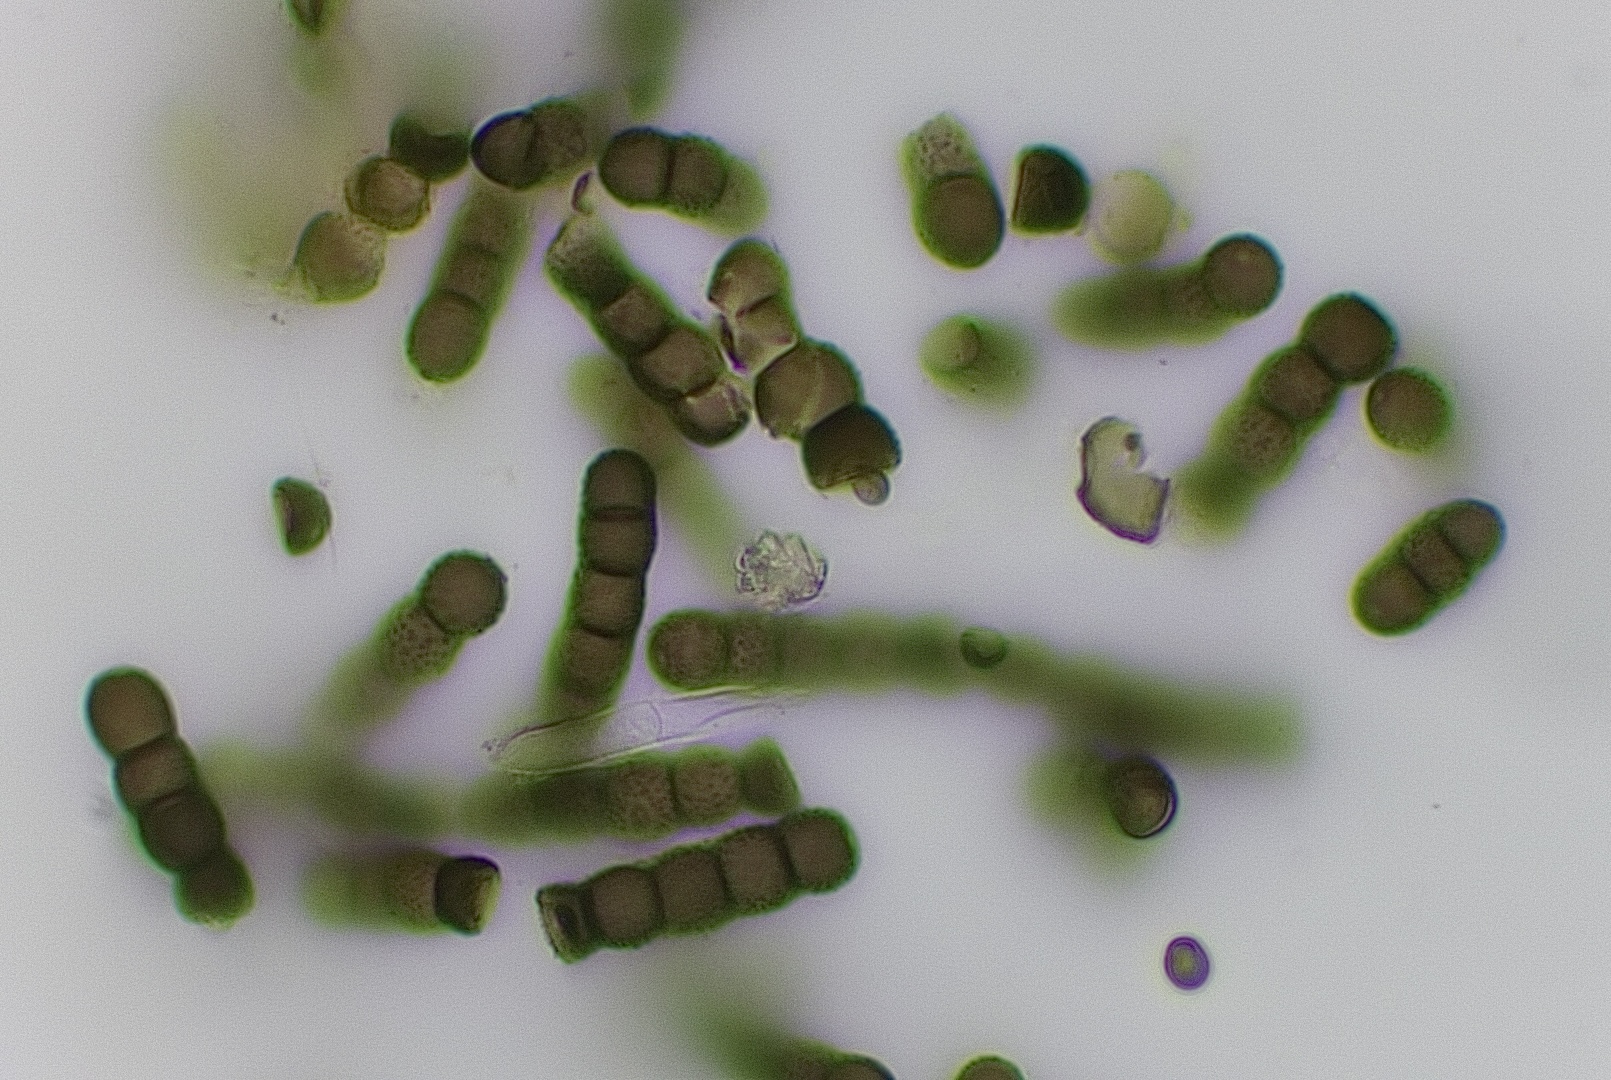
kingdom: Fungi
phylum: Ascomycota
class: Dothideomycetes
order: Pleosporales
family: Torulaceae
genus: Torula
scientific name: Torula herbarum
